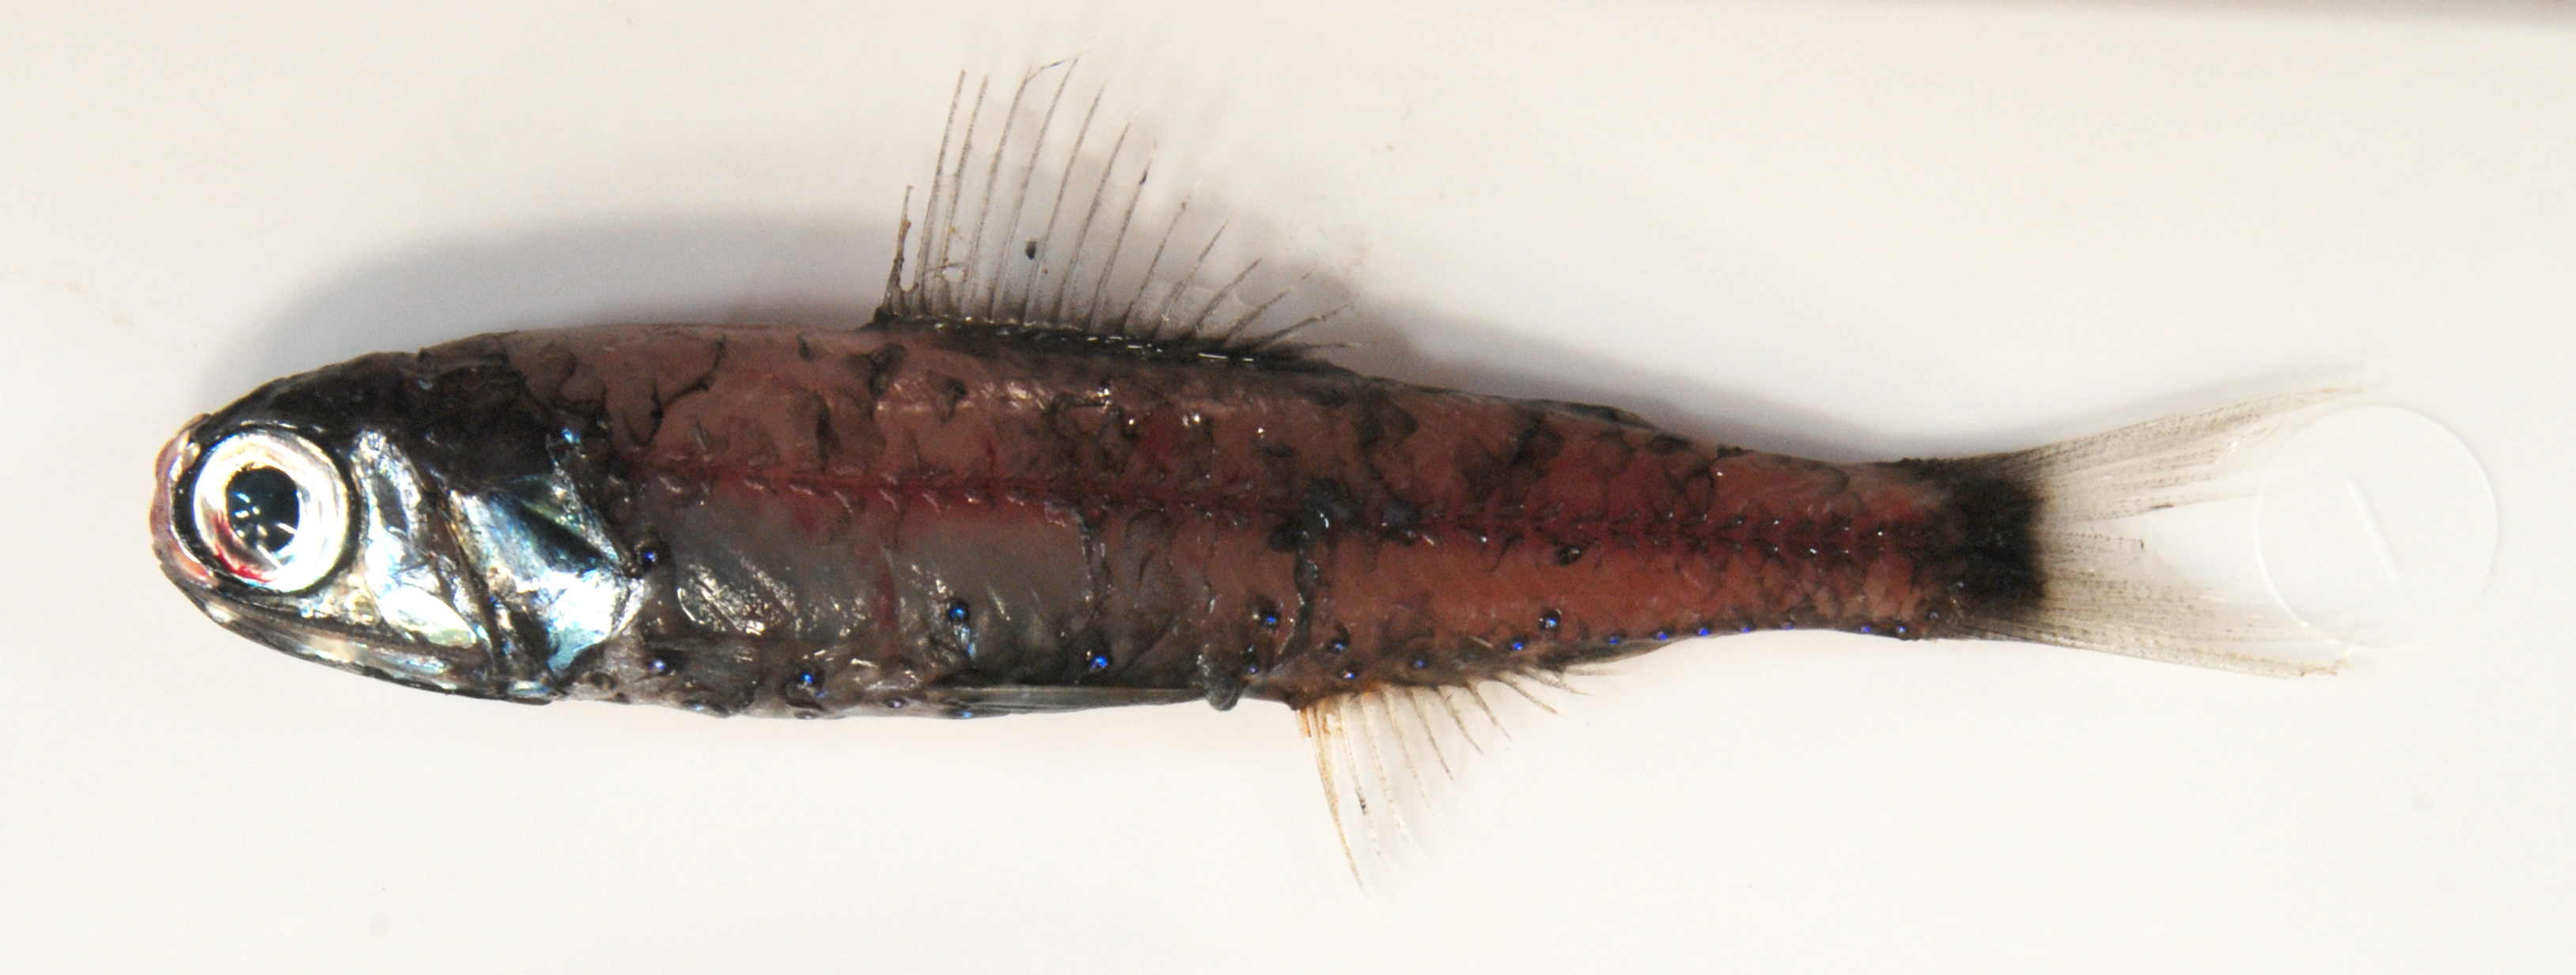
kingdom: Animalia
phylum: Chordata
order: Myctophiformes
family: Myctophidae
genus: Symbolophorus
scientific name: Symbolophorus evermanni
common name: Evermann's lanternfish
